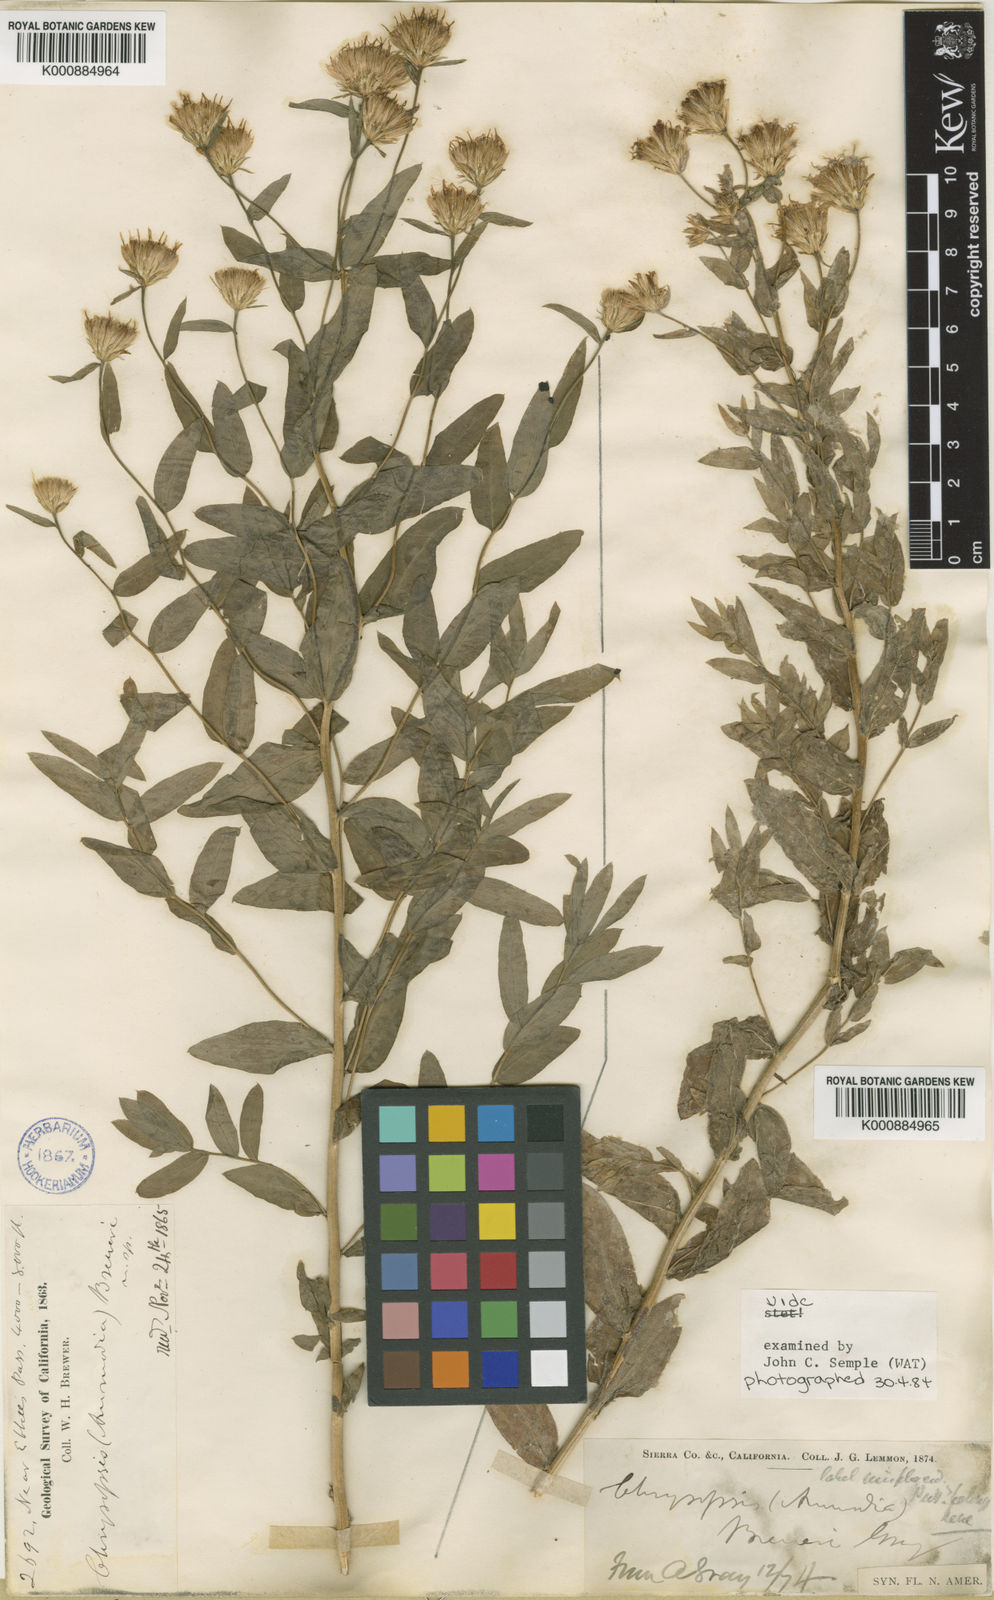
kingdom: Plantae
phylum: Tracheophyta
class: Magnoliopsida
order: Asterales
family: Asteraceae
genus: Eucephalus
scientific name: Eucephalus breweri
